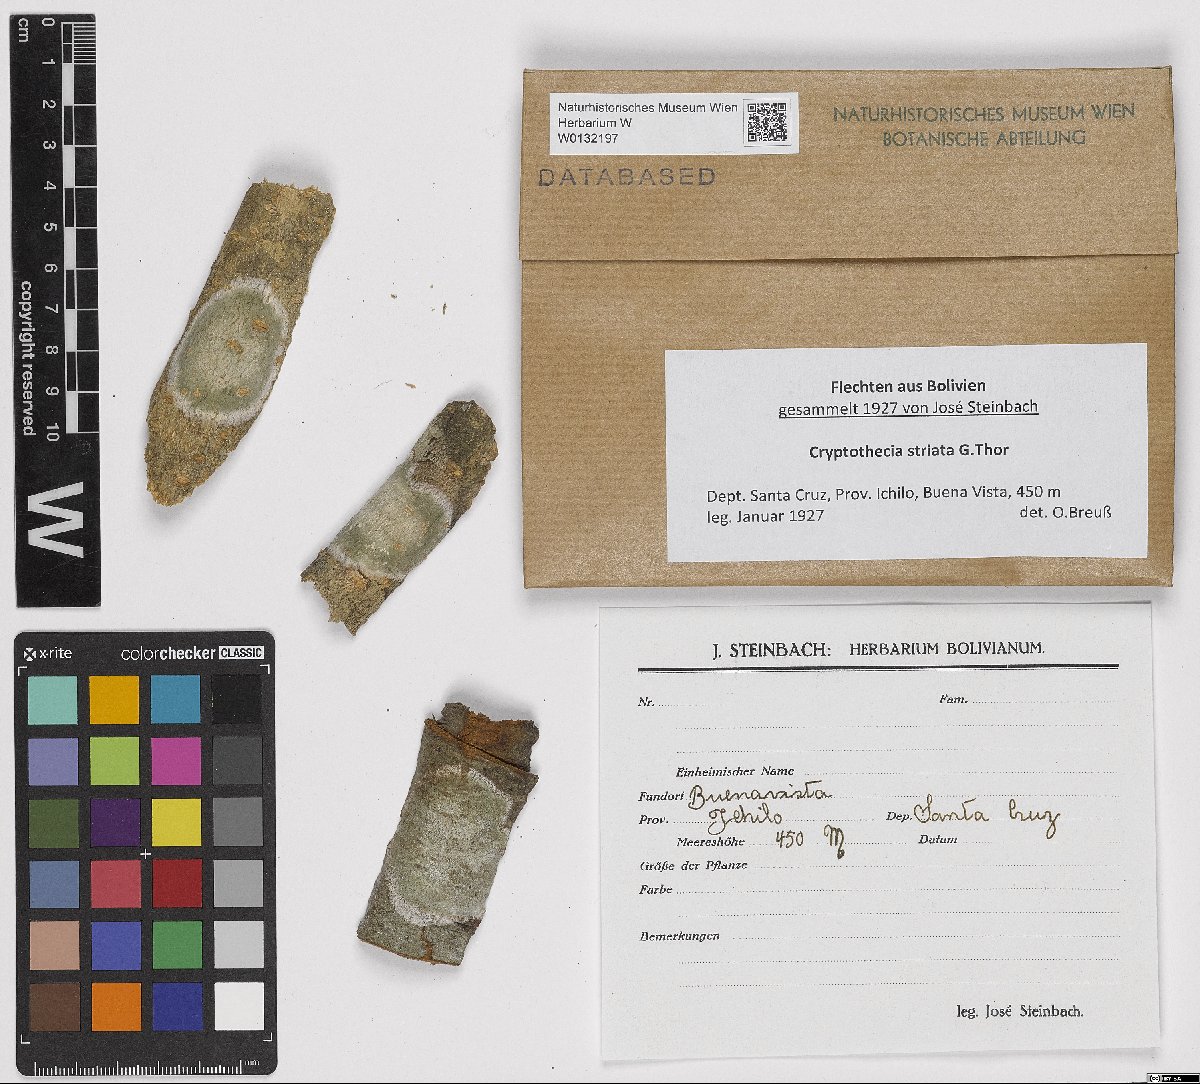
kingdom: Fungi
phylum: Ascomycota
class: Arthoniomycetes
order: Arthoniales
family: Arthoniaceae
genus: Cryptothecia
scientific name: Cryptothecia striata
